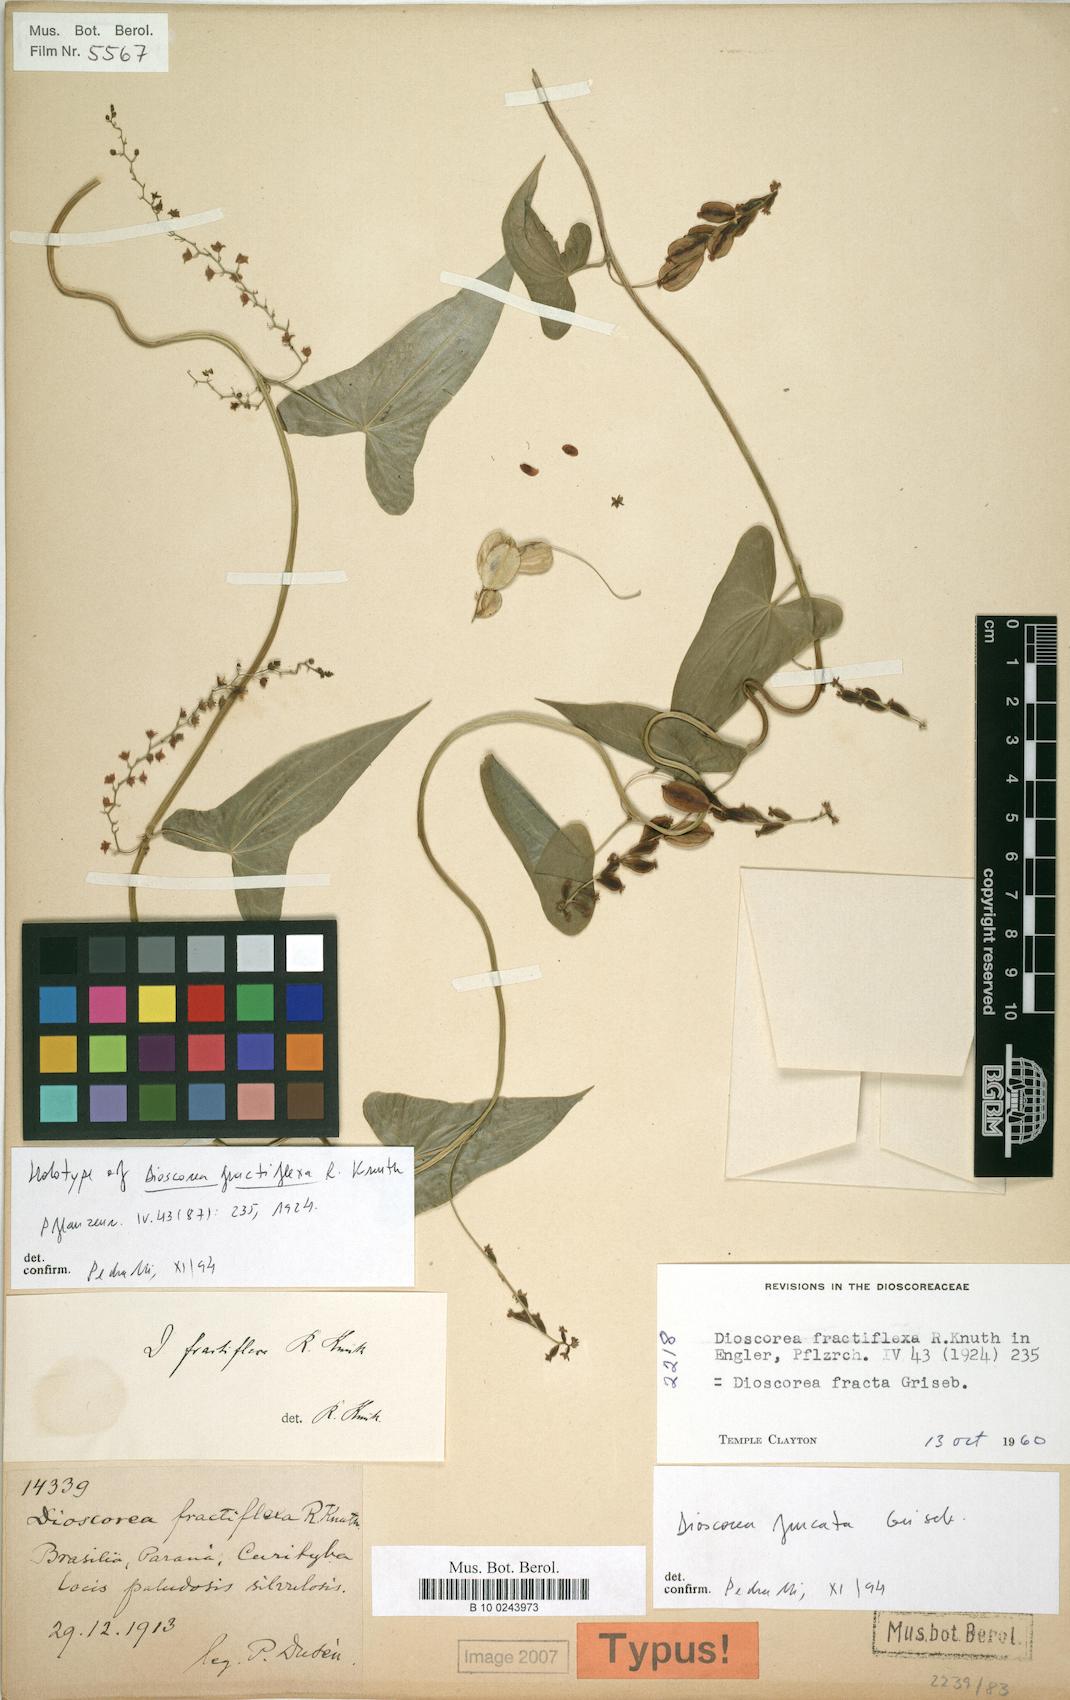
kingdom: Plantae
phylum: Tracheophyta
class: Liliopsida
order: Dioscoreales
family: Dioscoreaceae
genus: Dioscorea
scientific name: Dioscorea fractiflexa
